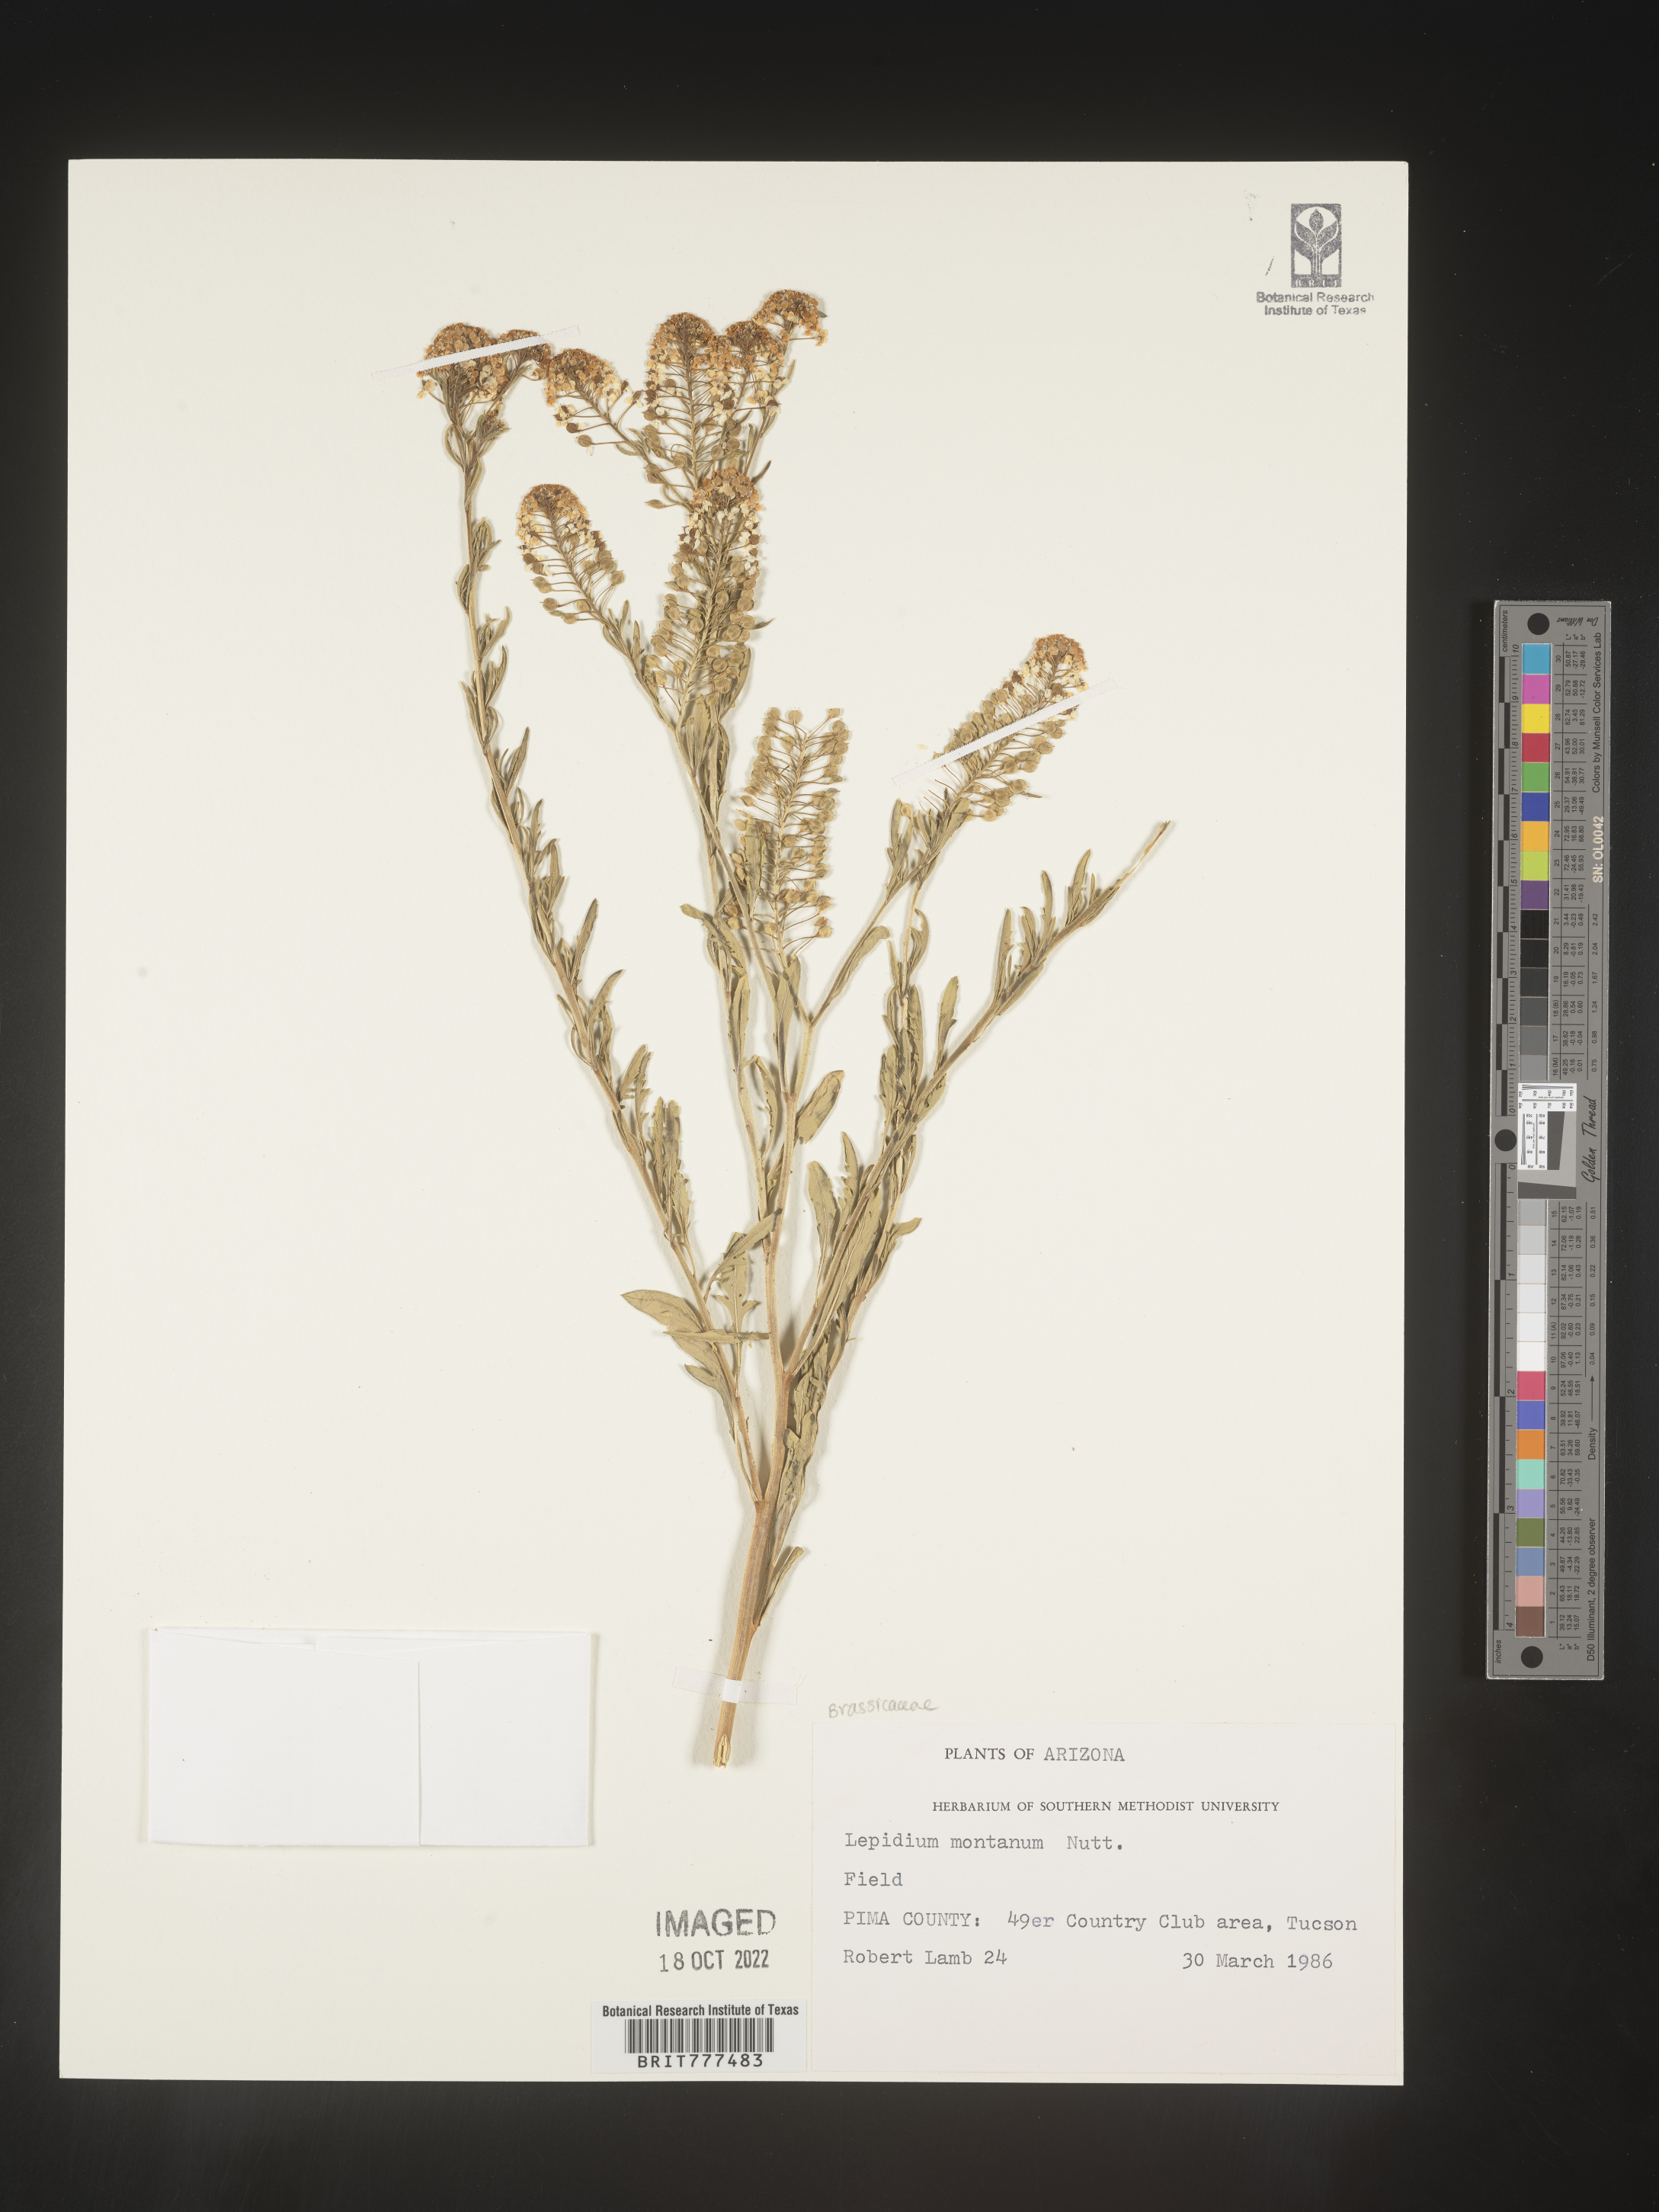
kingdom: Plantae
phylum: Tracheophyta
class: Magnoliopsida
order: Brassicales
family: Brassicaceae
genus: Lepidium
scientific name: Lepidium montanum
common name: Mountain pepperplant
